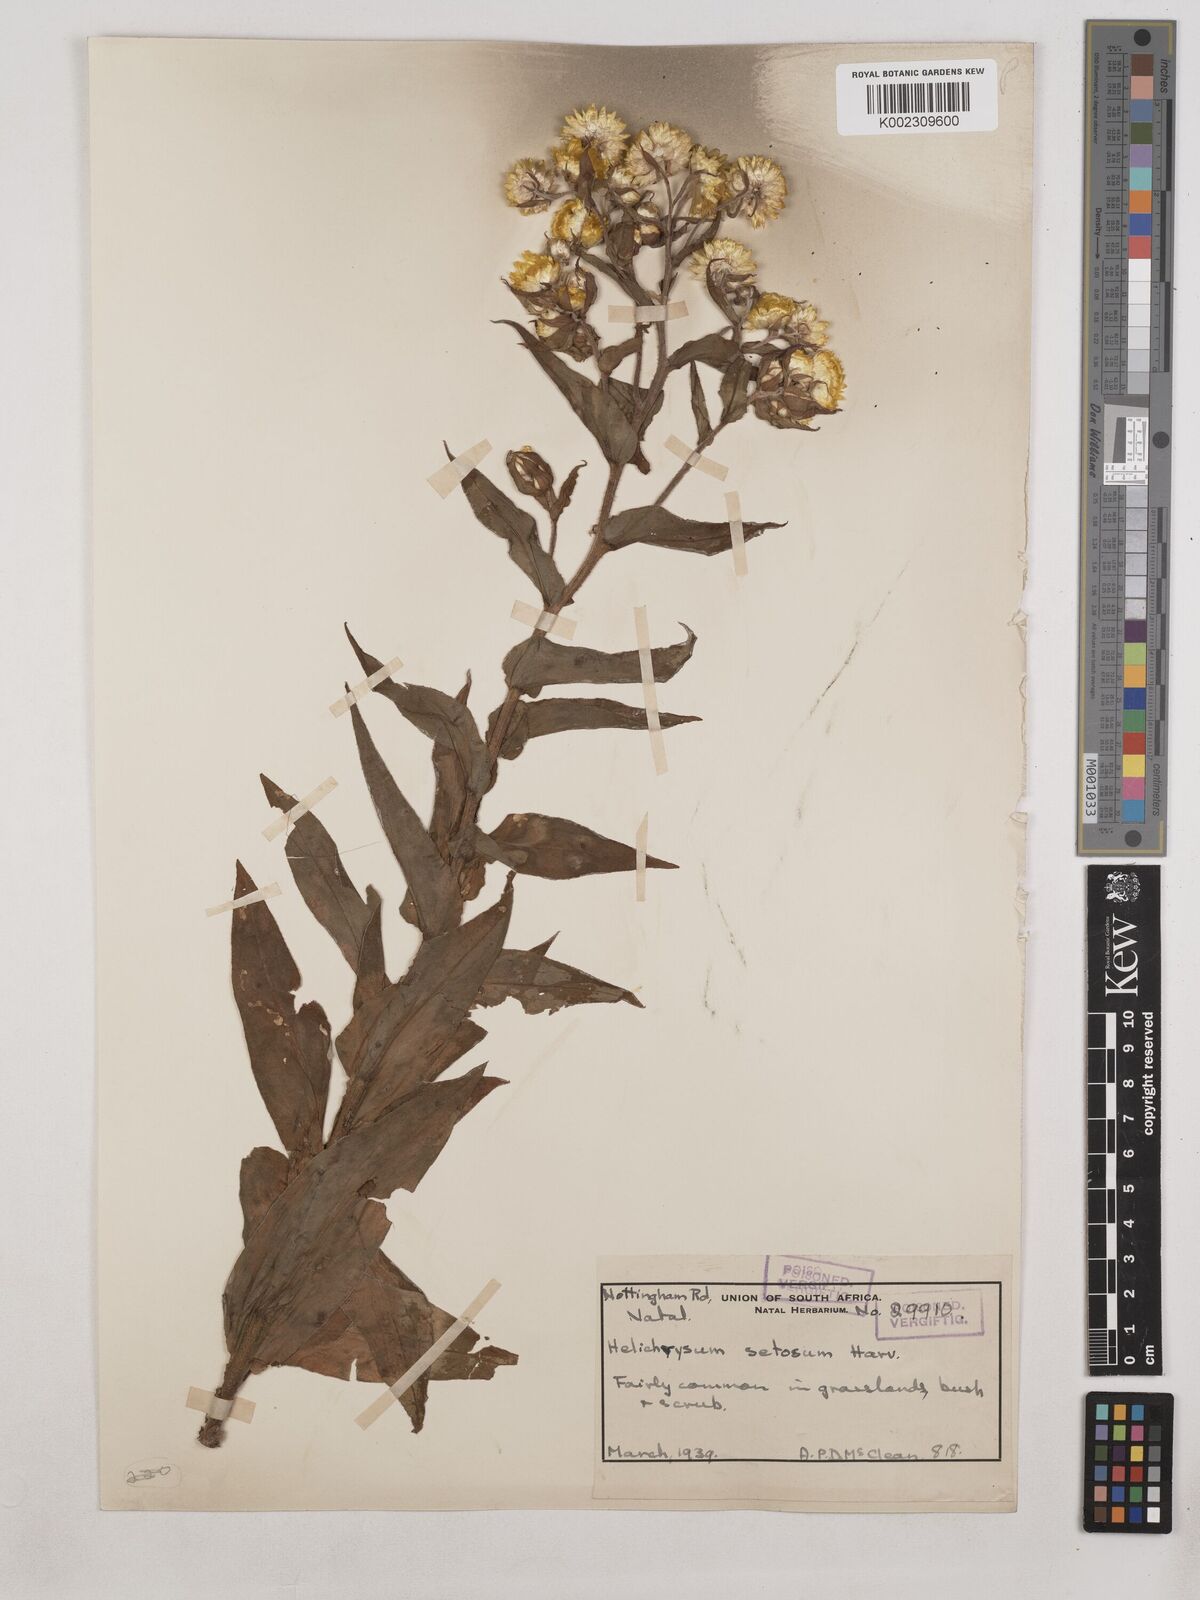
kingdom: Plantae
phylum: Tracheophyta
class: Magnoliopsida
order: Asterales
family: Asteraceae
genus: Helichrysum
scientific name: Helichrysum cooperi
